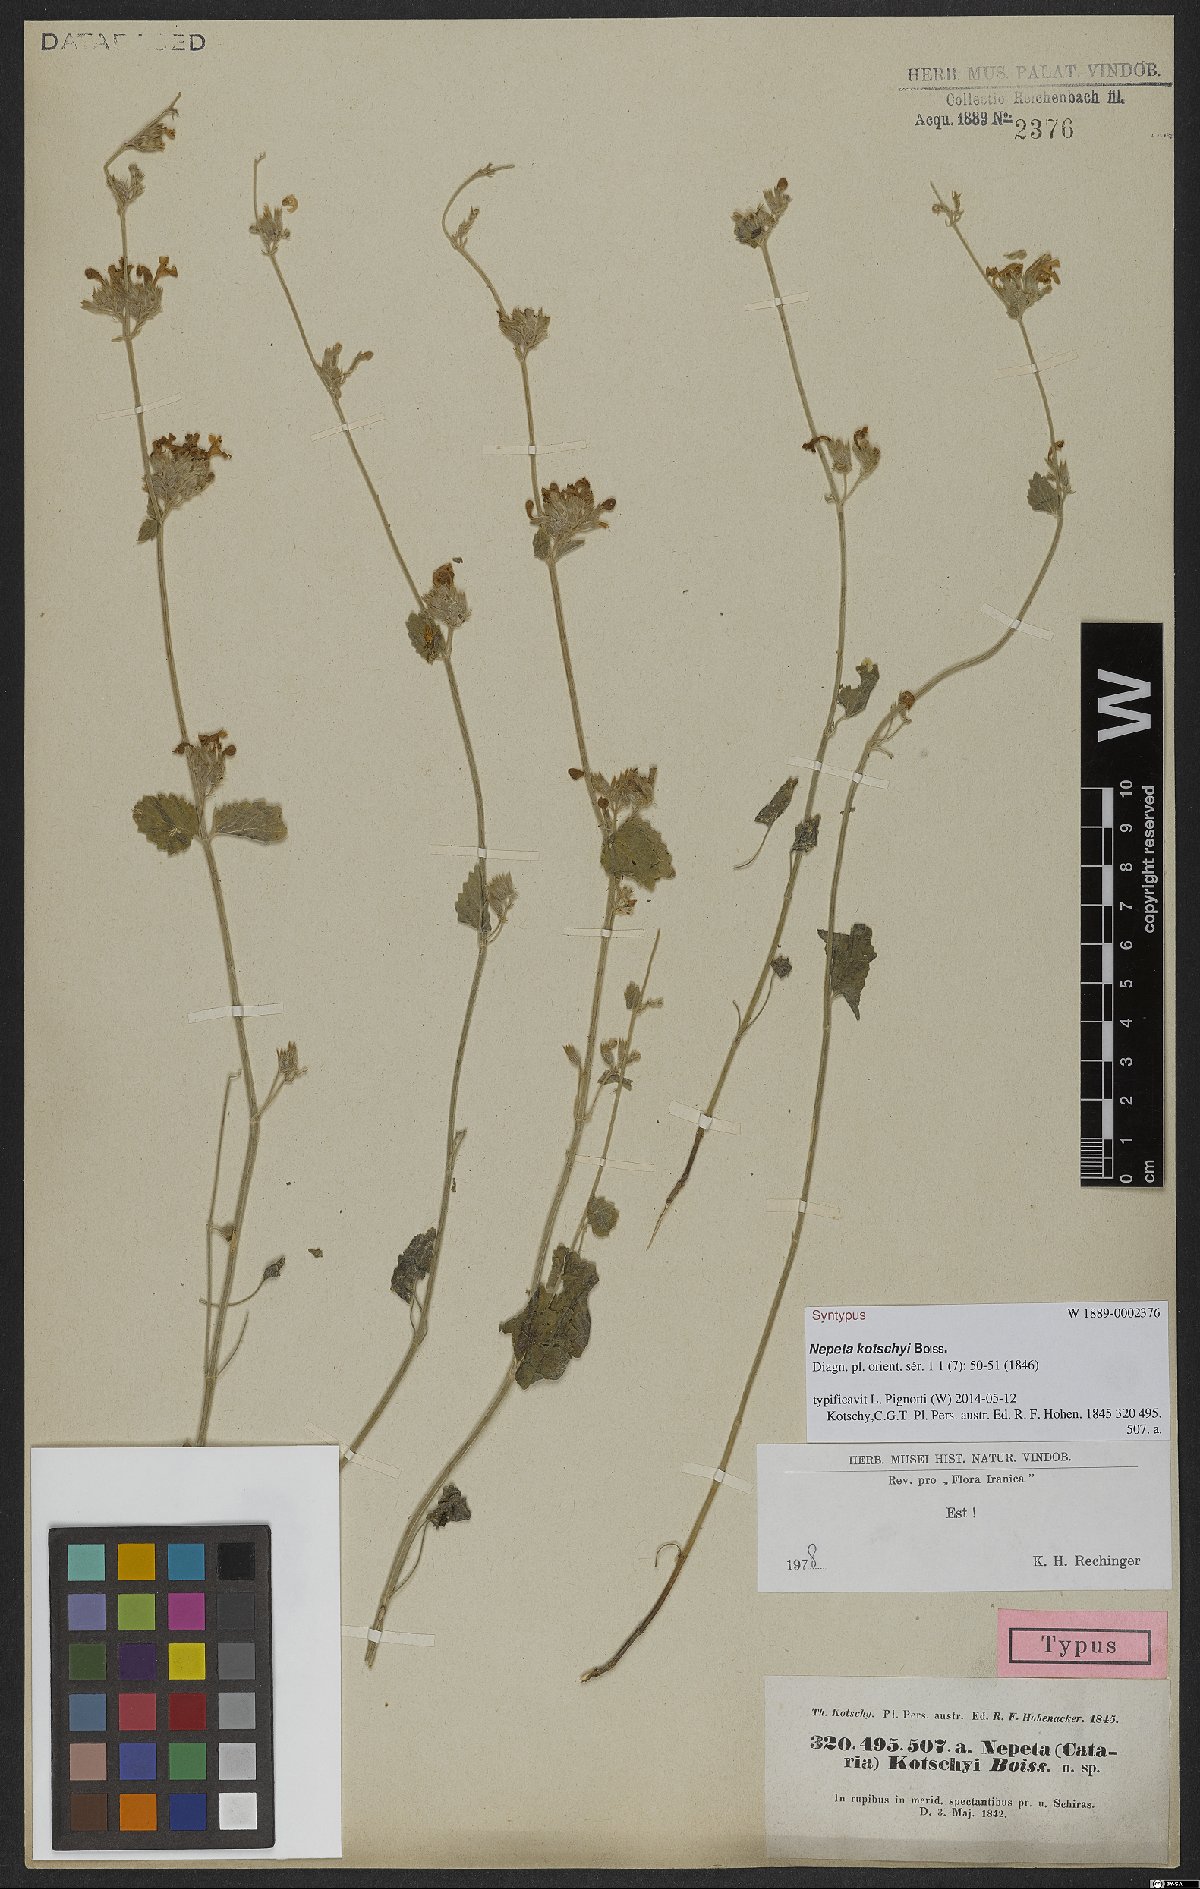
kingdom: Plantae
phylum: Tracheophyta
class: Magnoliopsida
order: Lamiales
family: Lamiaceae
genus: Nepeta
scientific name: Nepeta kotschyi
